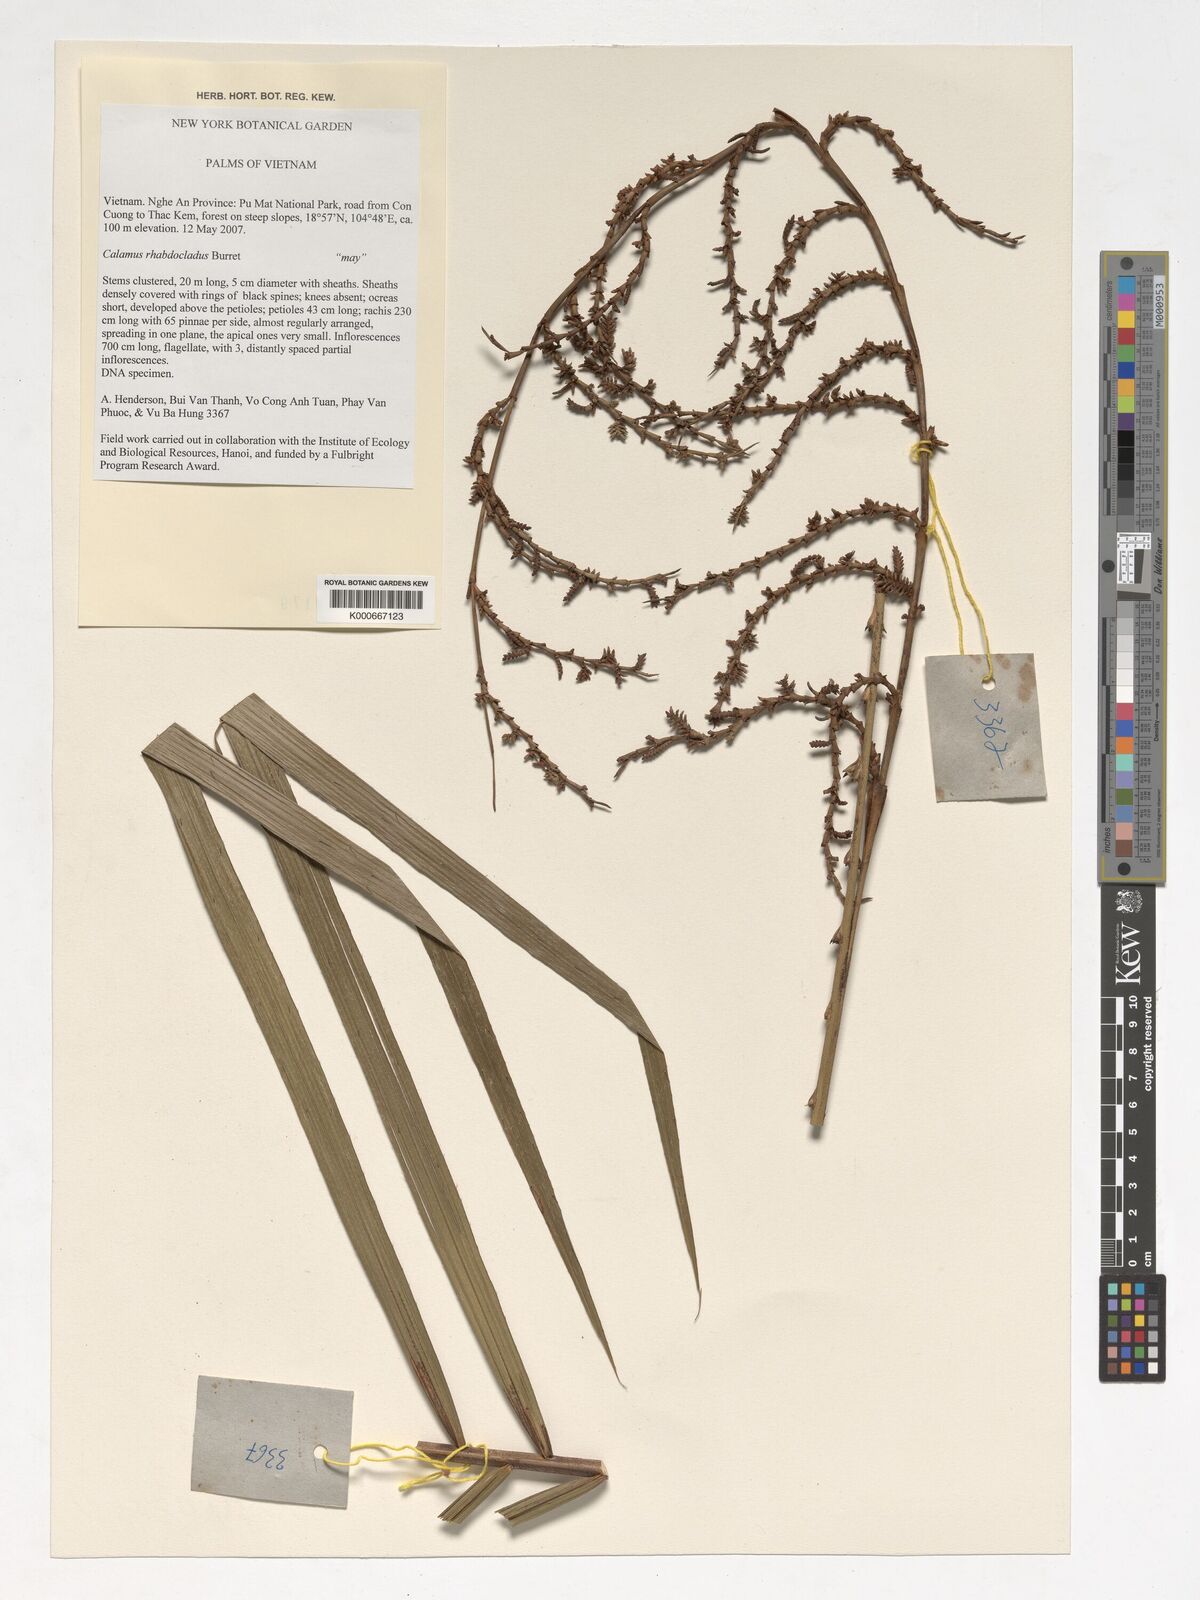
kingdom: Plantae
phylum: Tracheophyta
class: Liliopsida
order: Arecales
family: Arecaceae
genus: Calamus
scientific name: Calamus rhabdocladus
